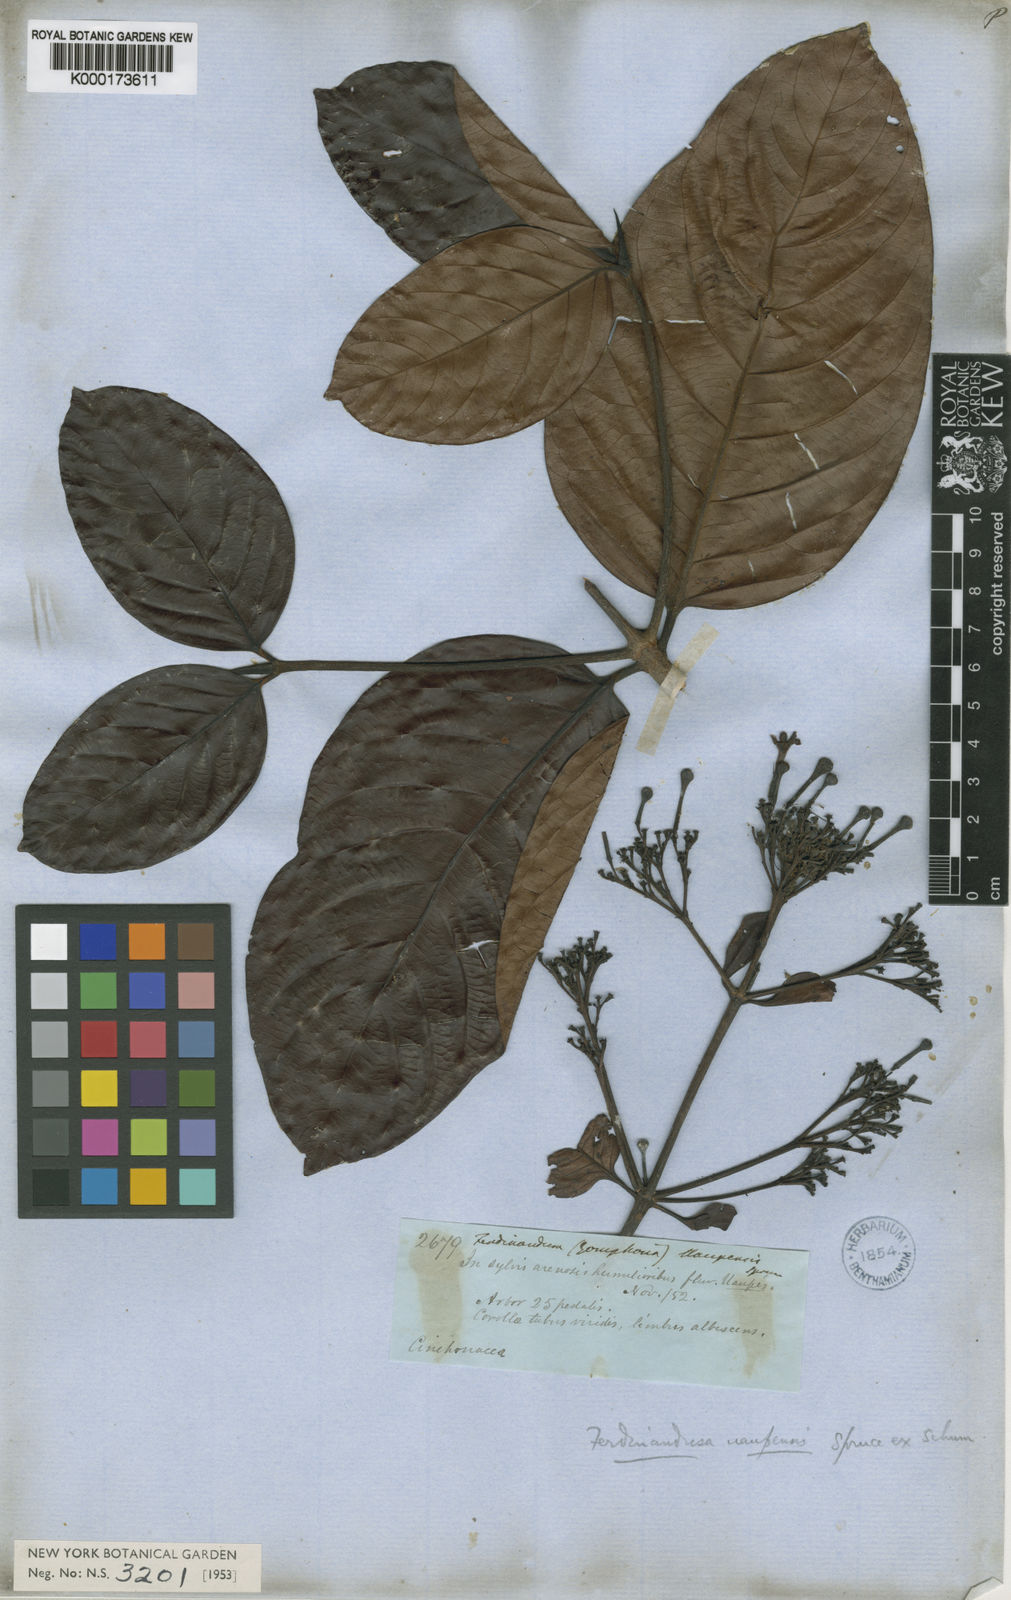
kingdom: Plantae
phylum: Tracheophyta
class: Magnoliopsida
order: Gentianales
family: Rubiaceae
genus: Ferdinandusa
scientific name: Ferdinandusa uaupensis
